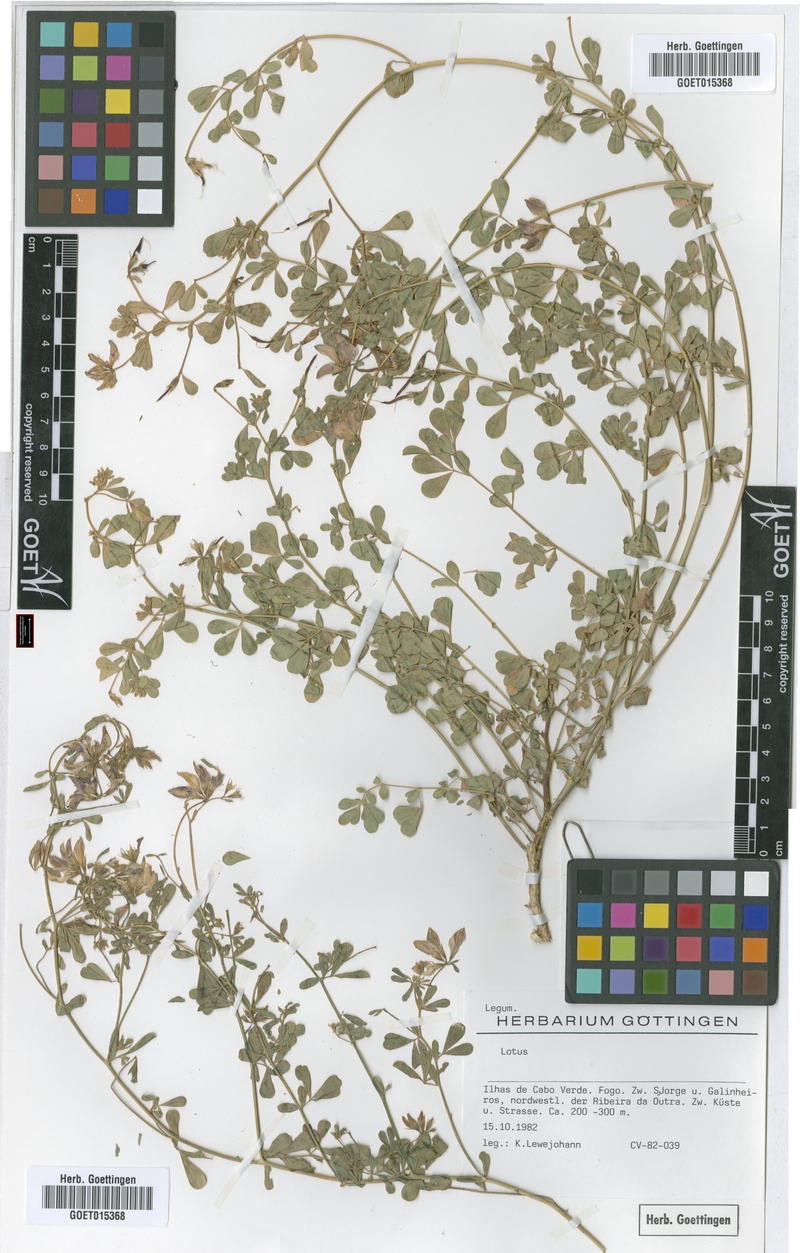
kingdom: Plantae
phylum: Tracheophyta
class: Magnoliopsida
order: Fabales
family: Fabaceae
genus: Lotus
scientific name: Lotus
